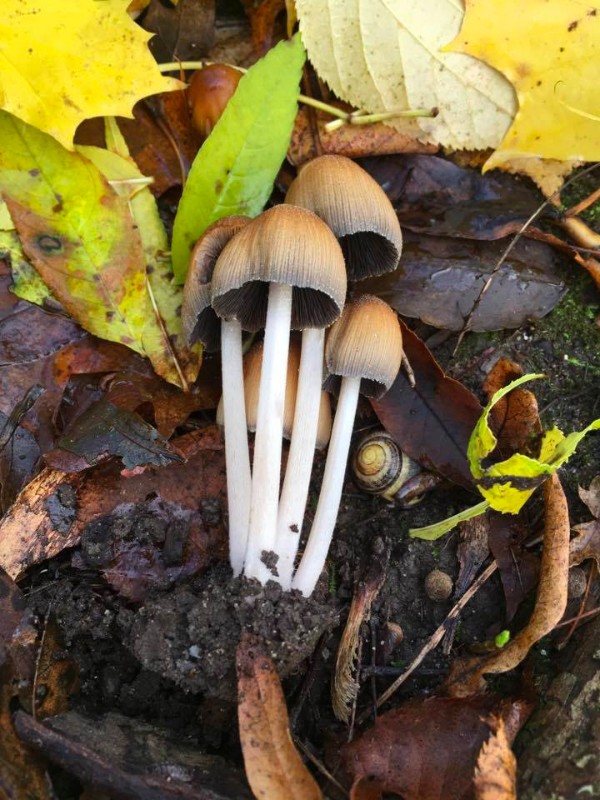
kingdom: Fungi
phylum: Basidiomycota
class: Agaricomycetes
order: Agaricales
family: Psathyrellaceae
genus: Coprinellus
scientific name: Coprinellus micaceus
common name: glimmer-blækhat
